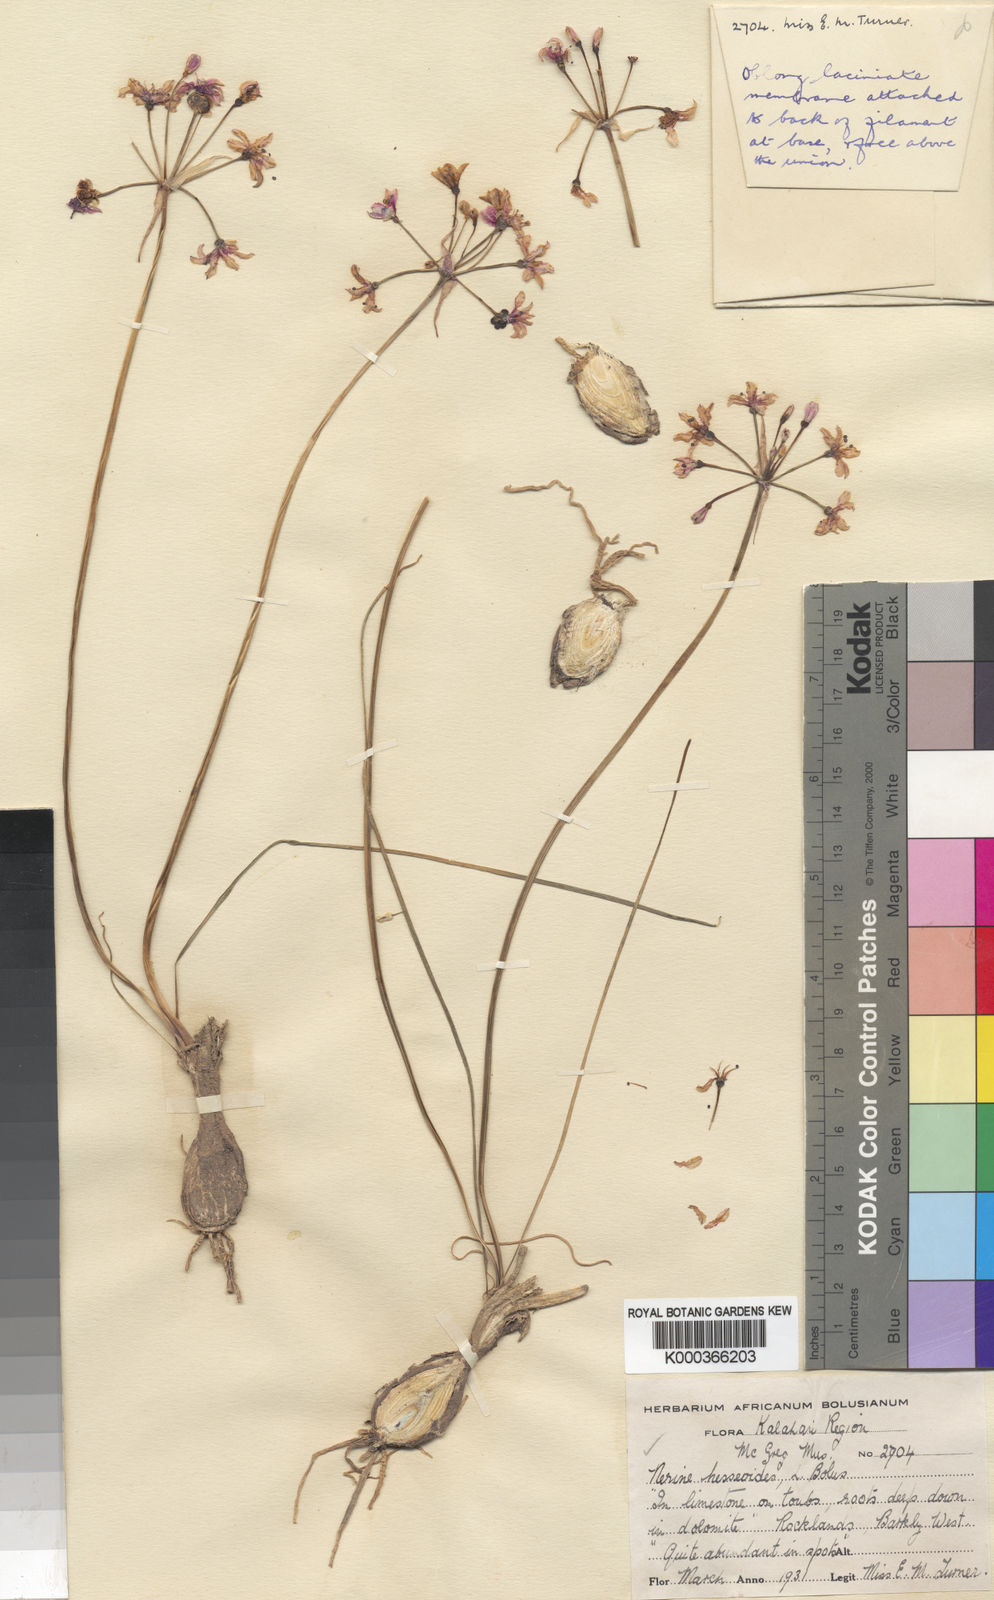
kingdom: Plantae
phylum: Tracheophyta
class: Liliopsida
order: Asparagales
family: Amaryllidaceae
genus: Nerine
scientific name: Nerine hesseoides
